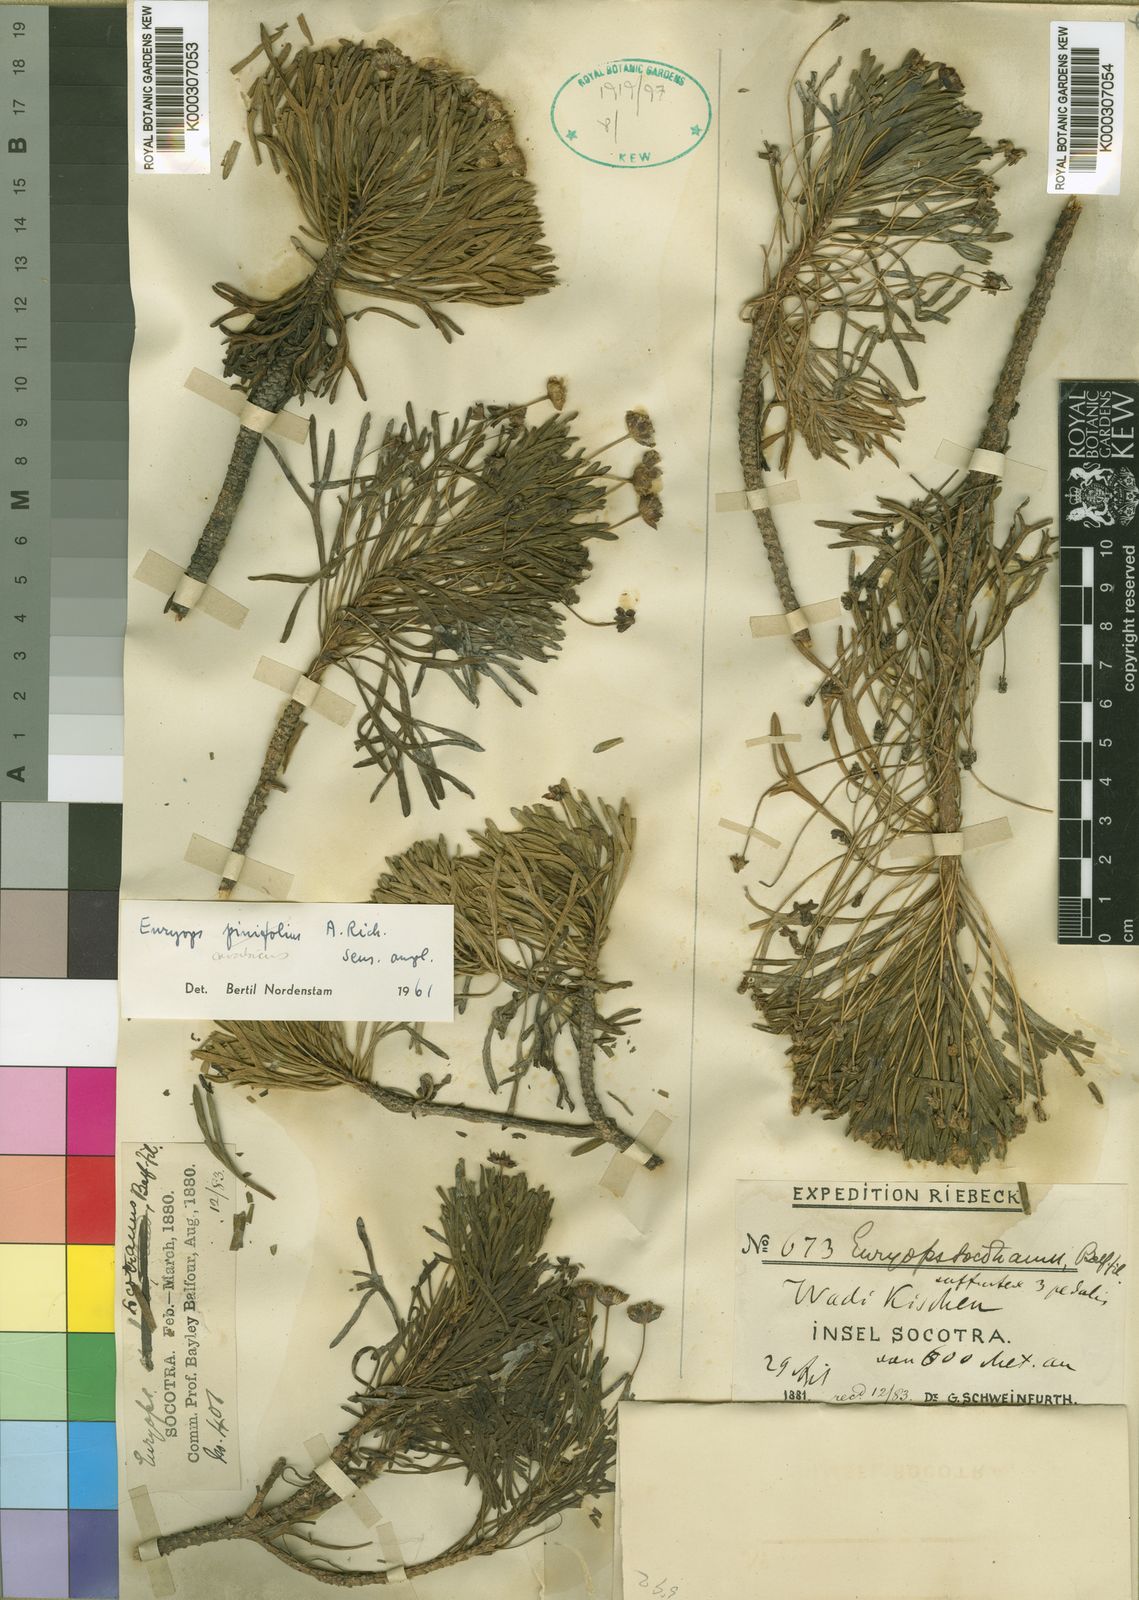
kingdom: Plantae
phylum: Tracheophyta
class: Magnoliopsida
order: Asterales
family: Asteraceae
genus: Euryops
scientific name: Euryops arabicus
